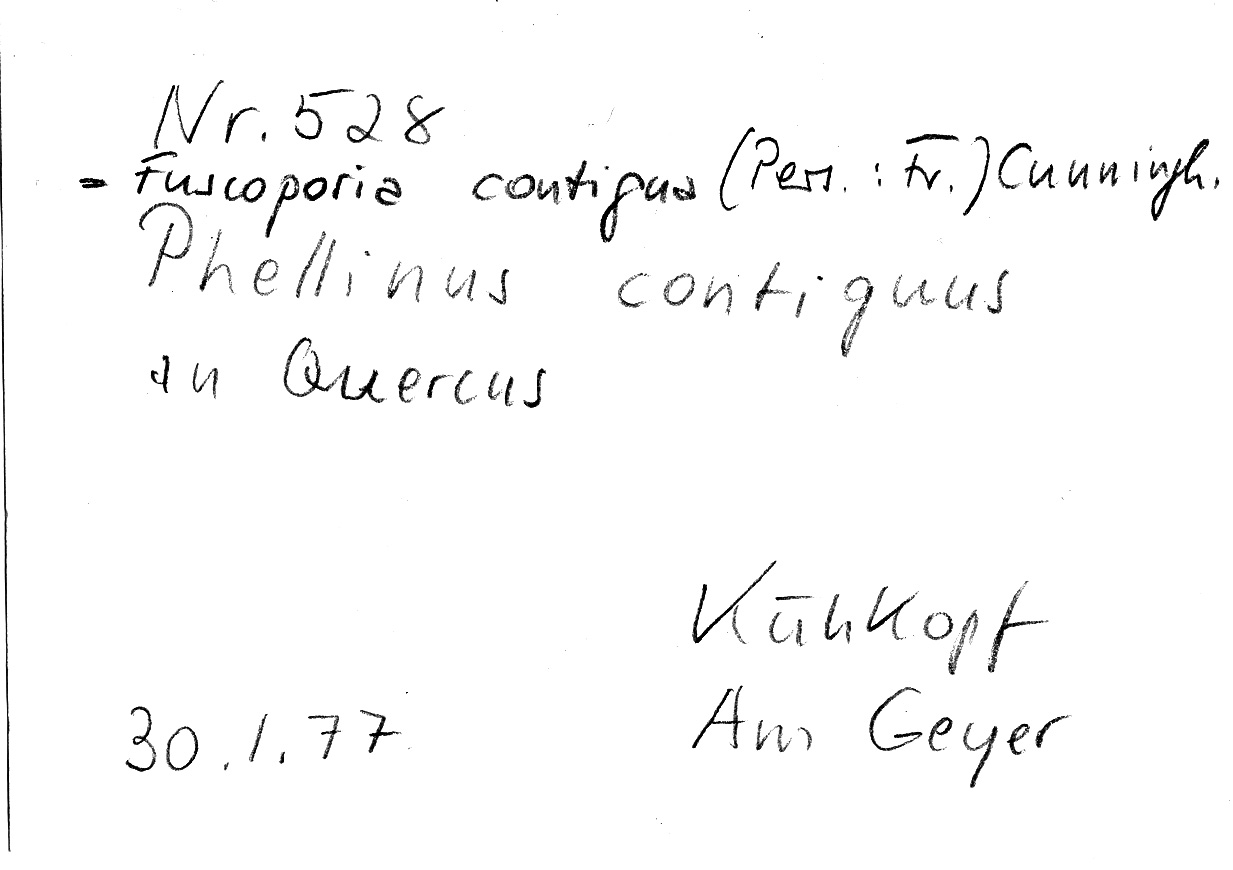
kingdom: Fungi
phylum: Basidiomycota
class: Agaricomycetes
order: Hymenochaetales
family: Hymenochaetaceae
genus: Fuscoporia
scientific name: Fuscoporia contigua
